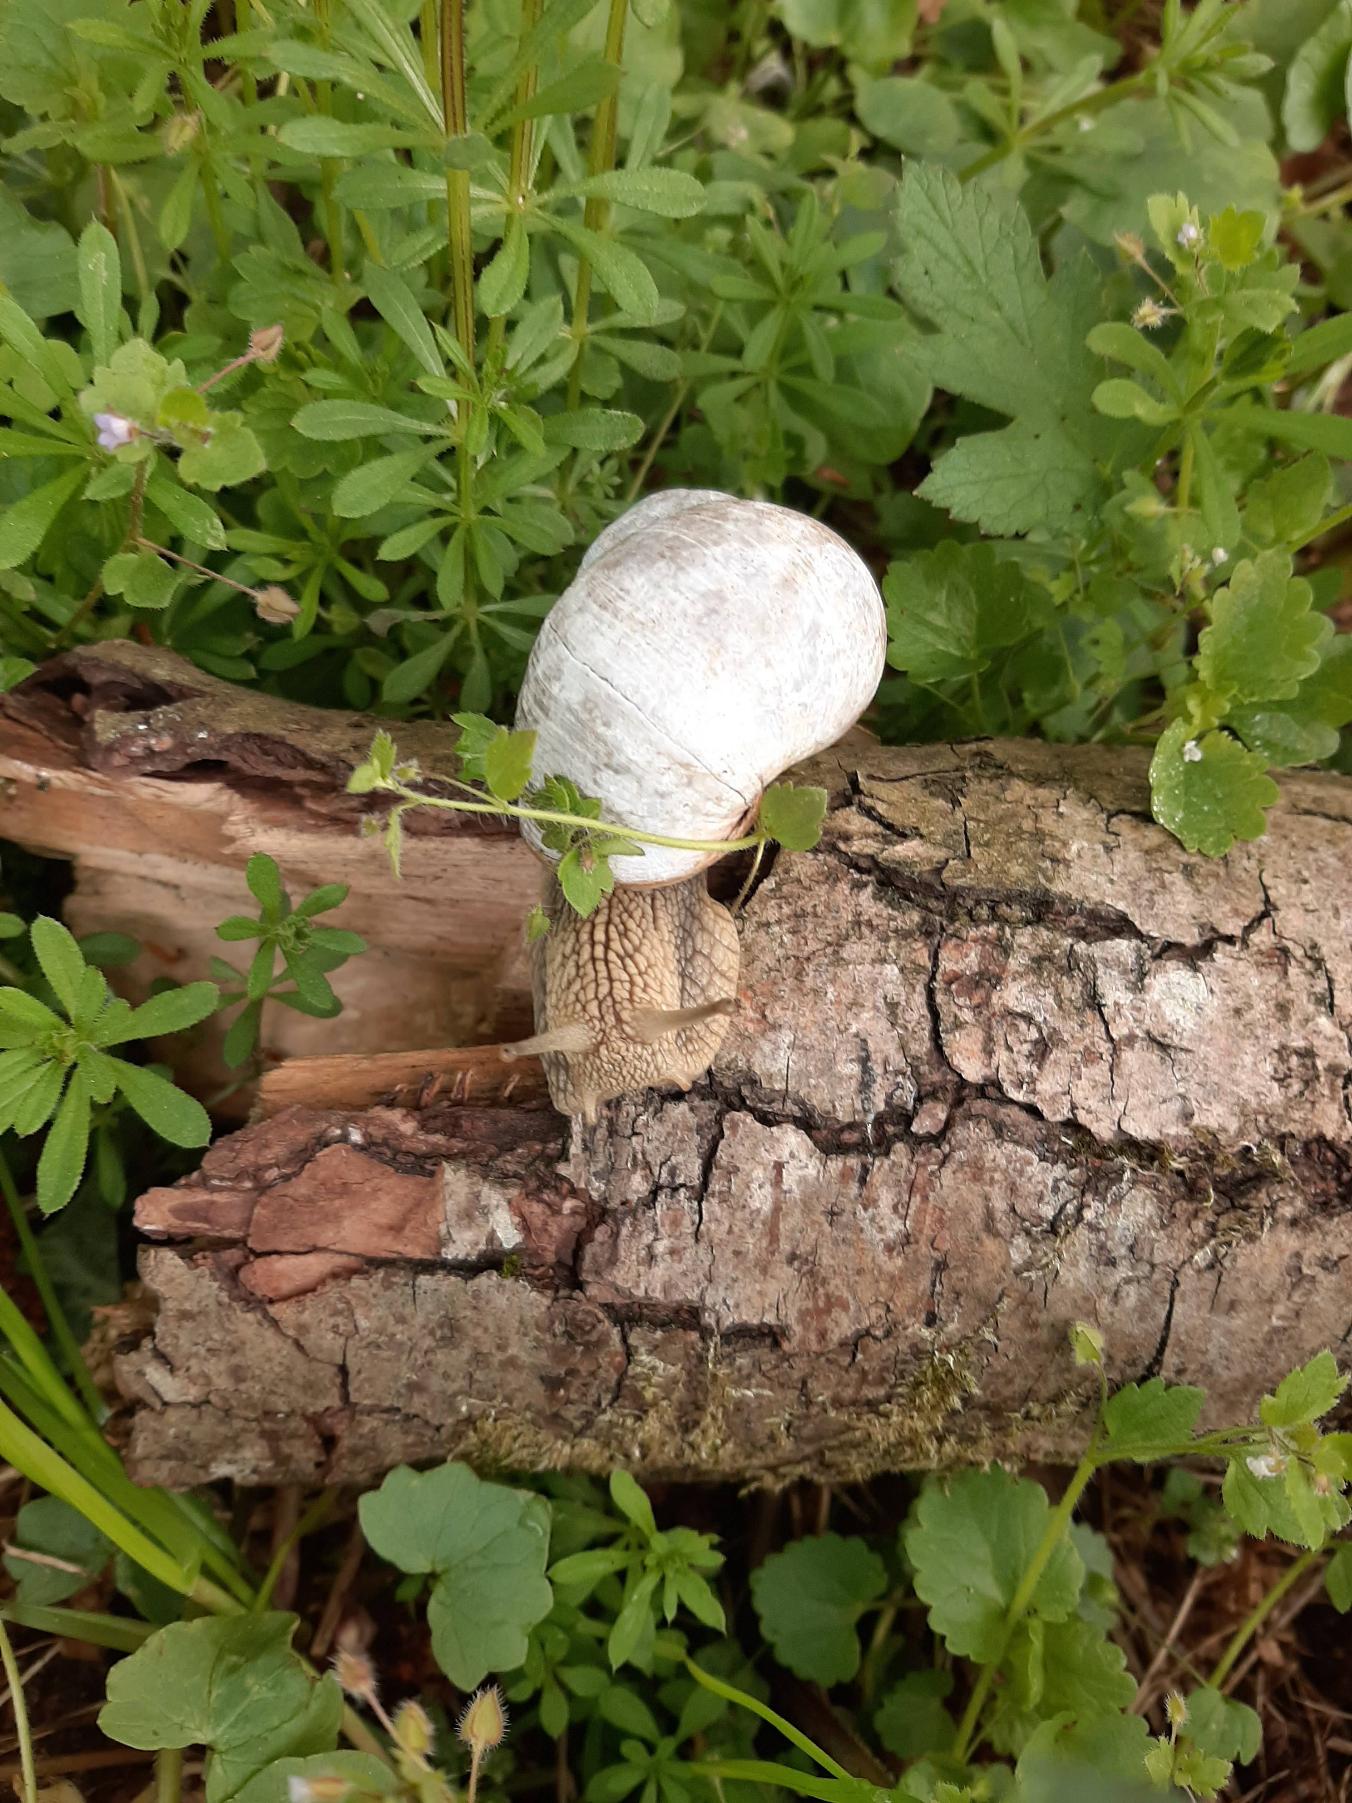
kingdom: Animalia
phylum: Mollusca
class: Gastropoda
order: Stylommatophora
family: Helicidae
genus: Helix
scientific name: Helix pomatia
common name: Vinbjergsnegl
